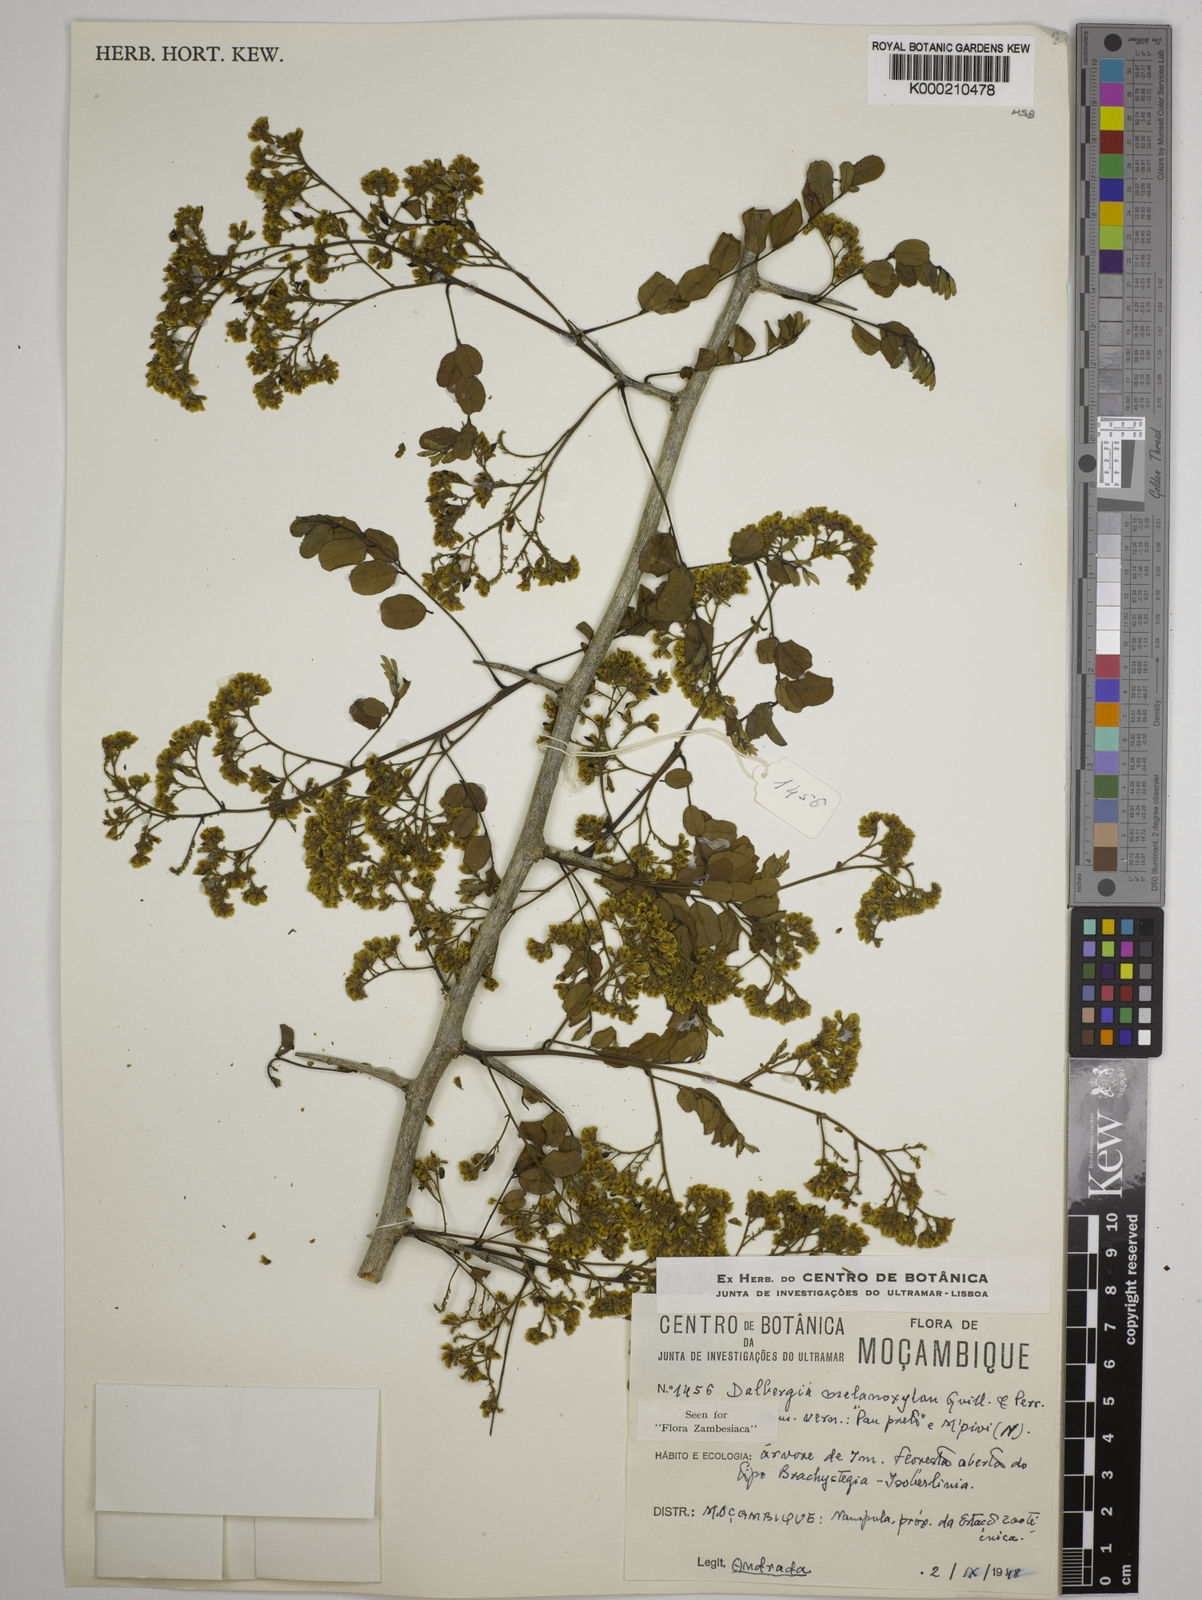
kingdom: Plantae
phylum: Tracheophyta
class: Magnoliopsida
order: Fabales
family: Fabaceae
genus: Dalbergia
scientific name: Dalbergia melanoxylon
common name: African blackwood
